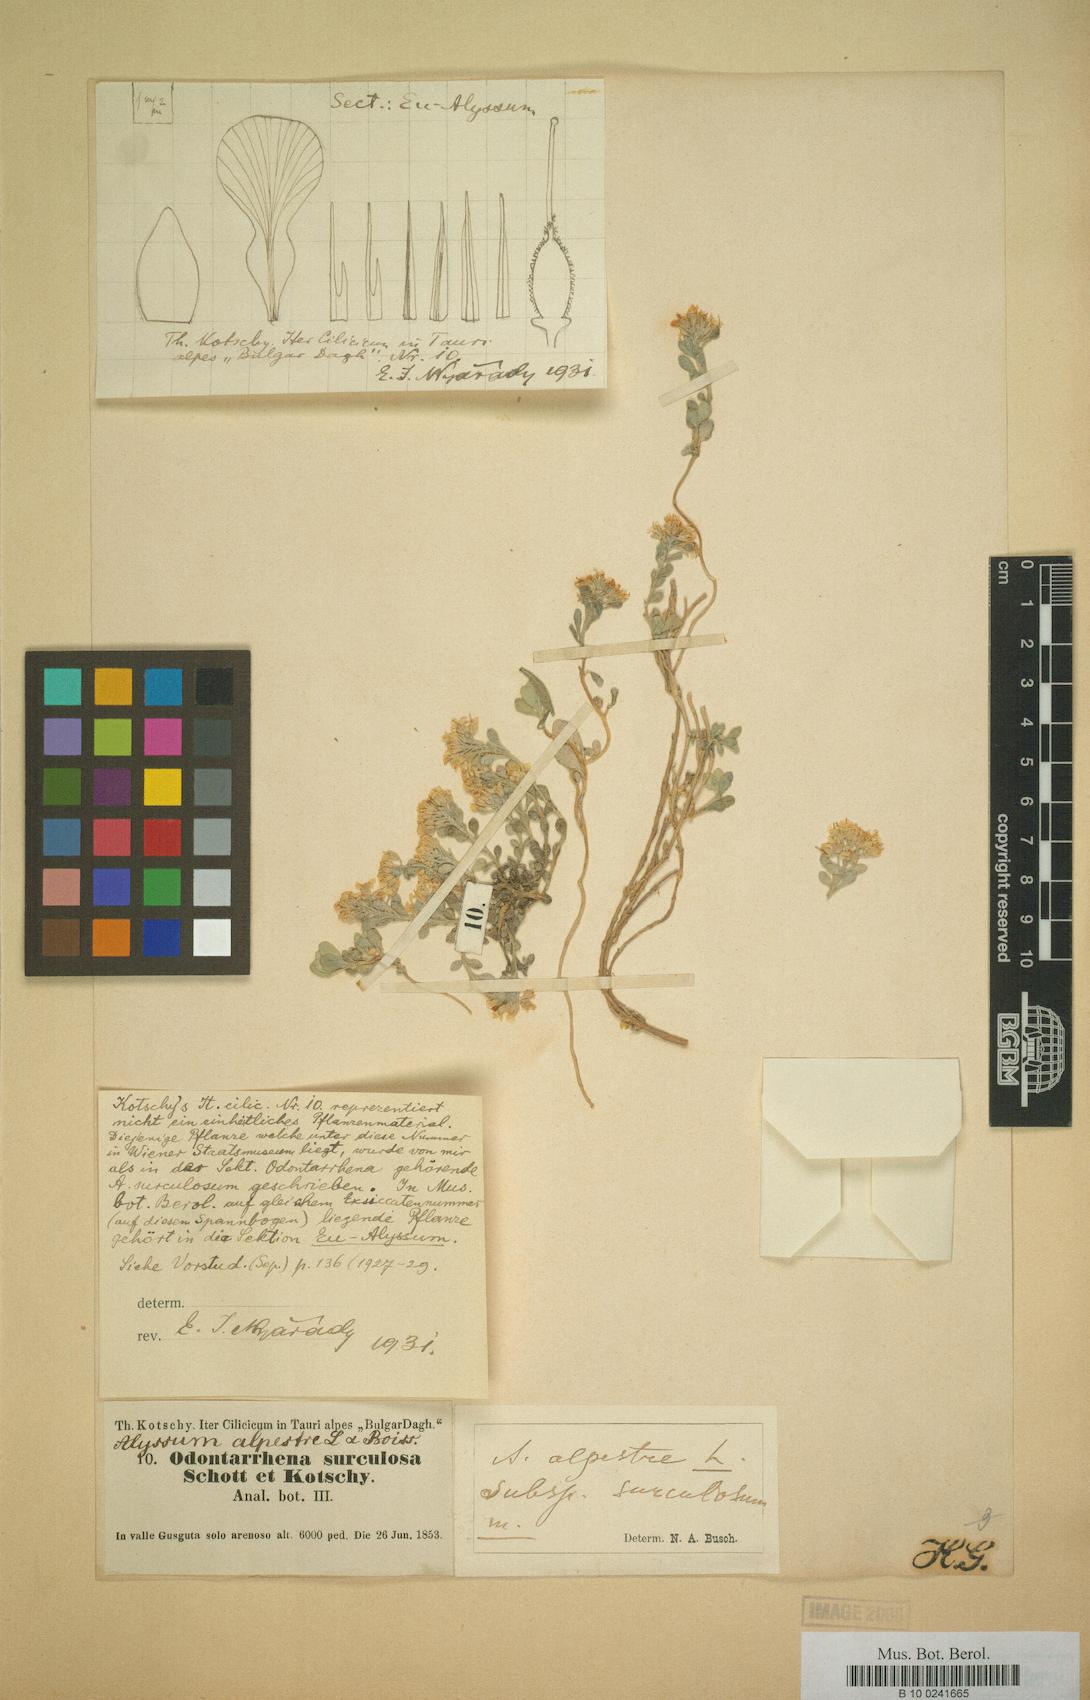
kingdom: Plantae
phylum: Tracheophyta
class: Magnoliopsida
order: Brassicales
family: Brassicaceae
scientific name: Brassicaceae
